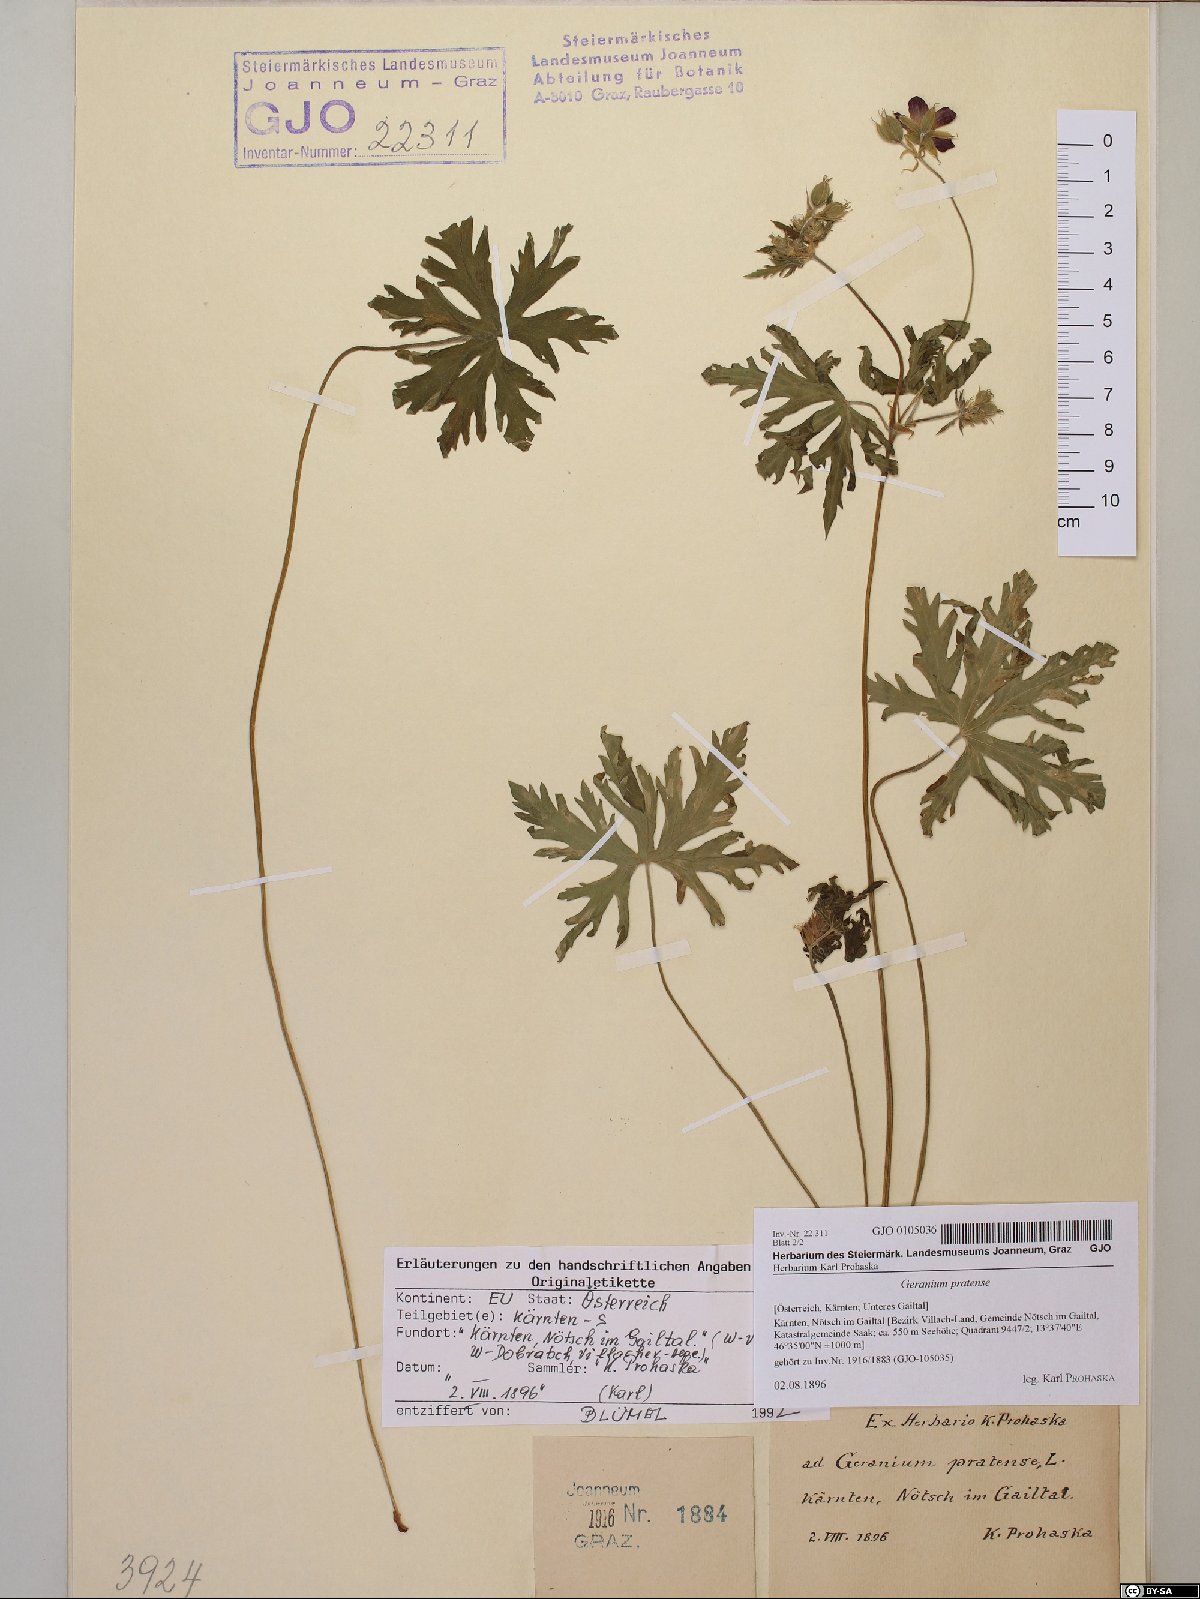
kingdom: Plantae
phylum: Tracheophyta
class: Magnoliopsida
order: Geraniales
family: Geraniaceae
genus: Geranium
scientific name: Geranium pratense
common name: Meadow crane's-bill
